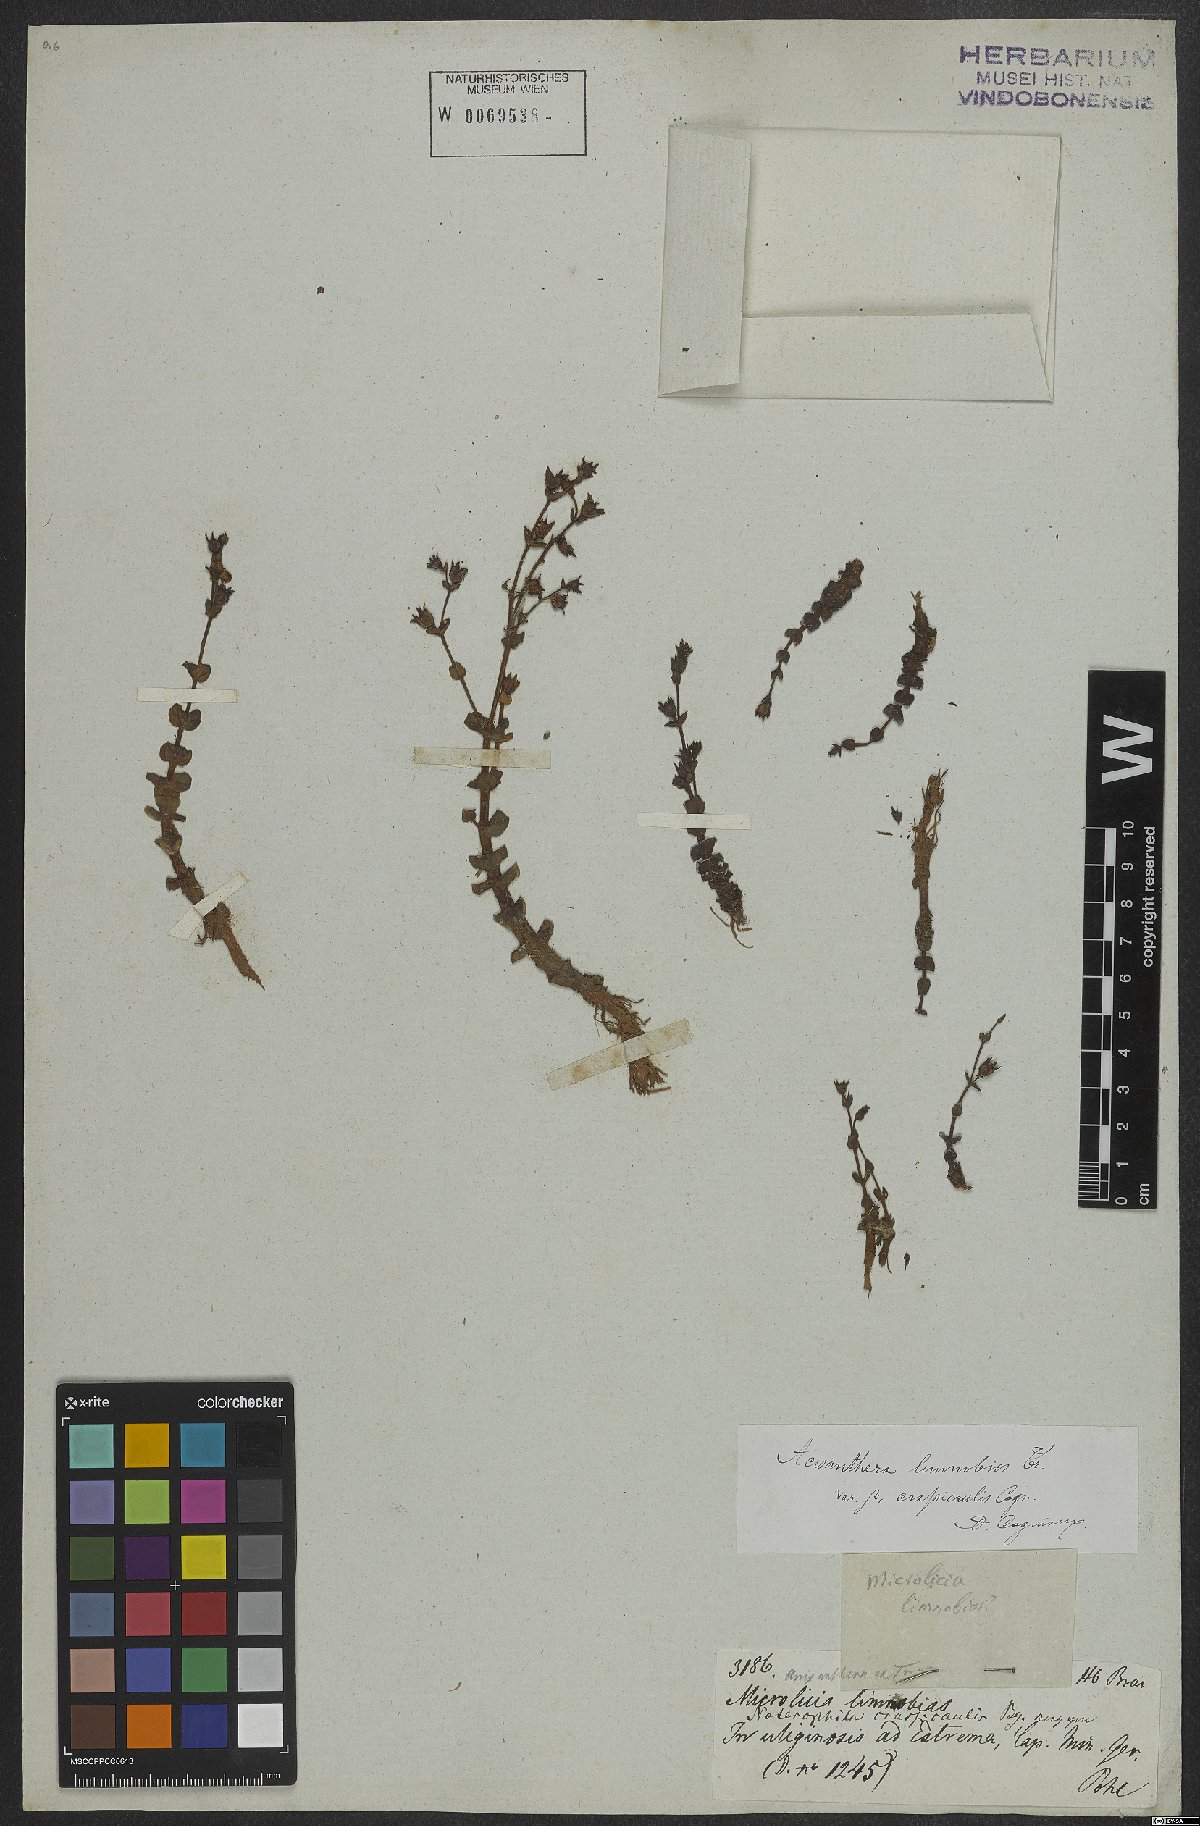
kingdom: Plantae
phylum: Tracheophyta
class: Magnoliopsida
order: Myrtales
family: Melastomataceae
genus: Noterophila
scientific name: Noterophila limnobios
